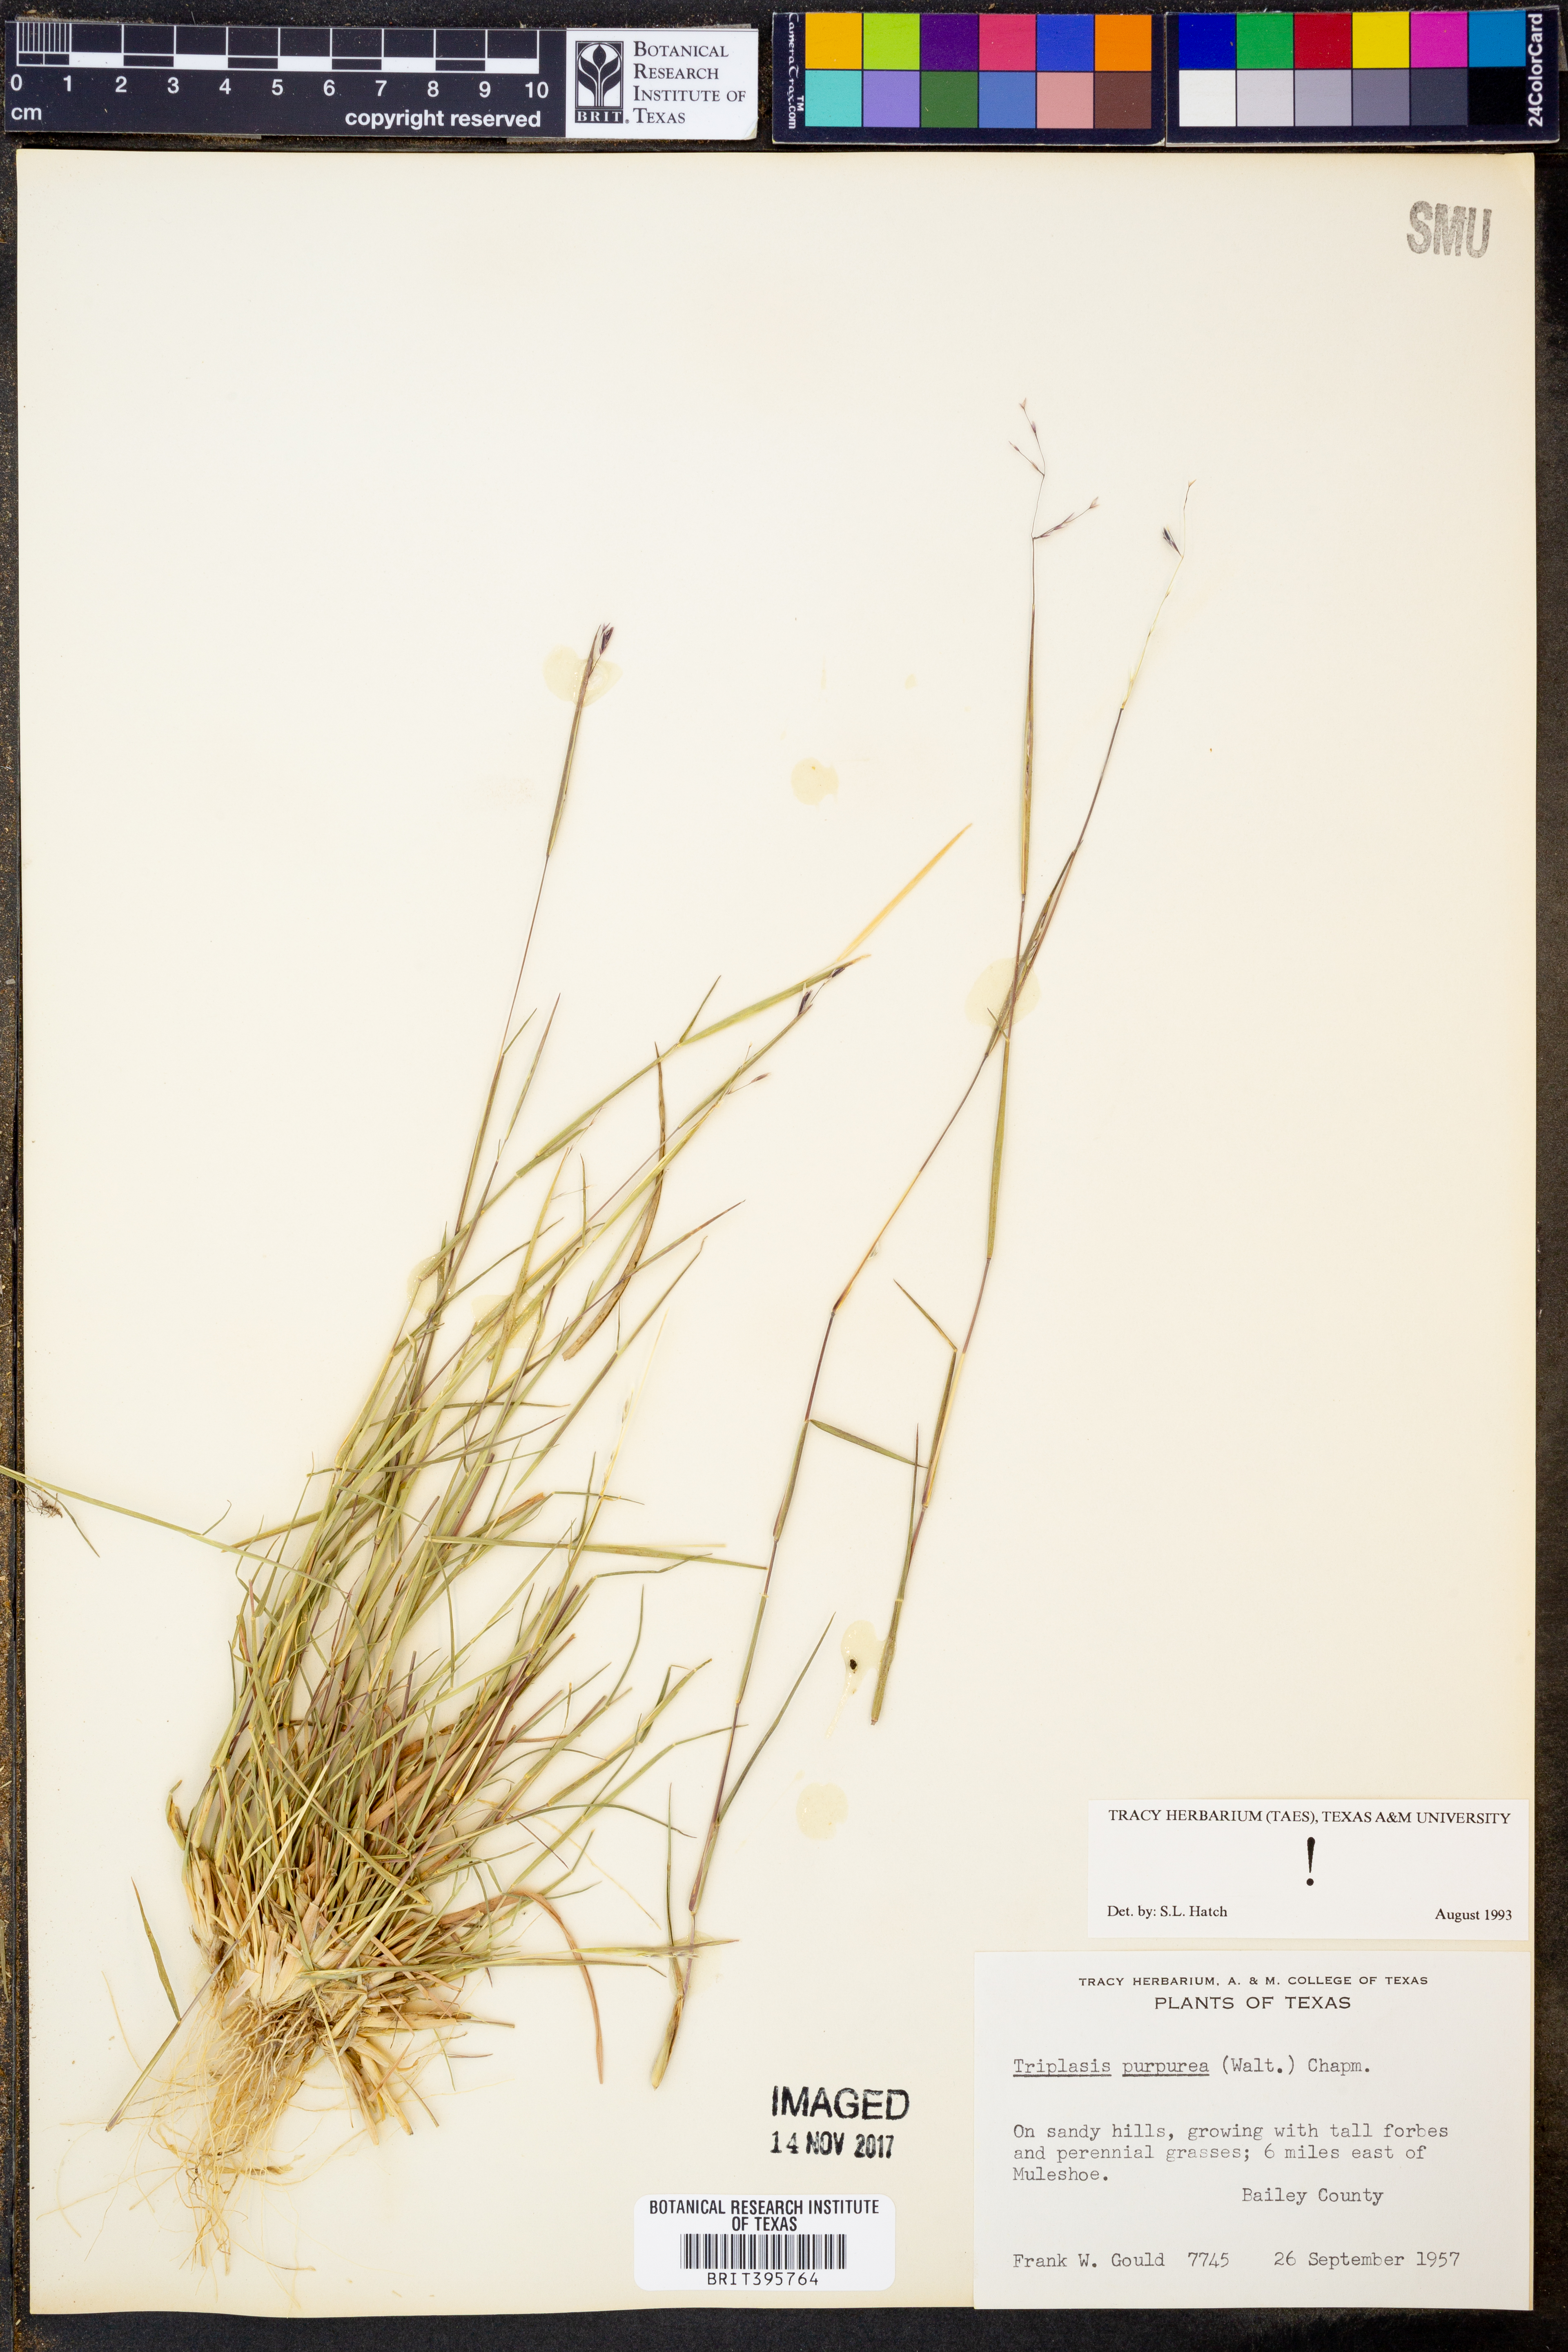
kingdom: Plantae
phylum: Tracheophyta
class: Liliopsida
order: Poales
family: Poaceae
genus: Triplasis
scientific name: Triplasis purpurea
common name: Purple sand grass
